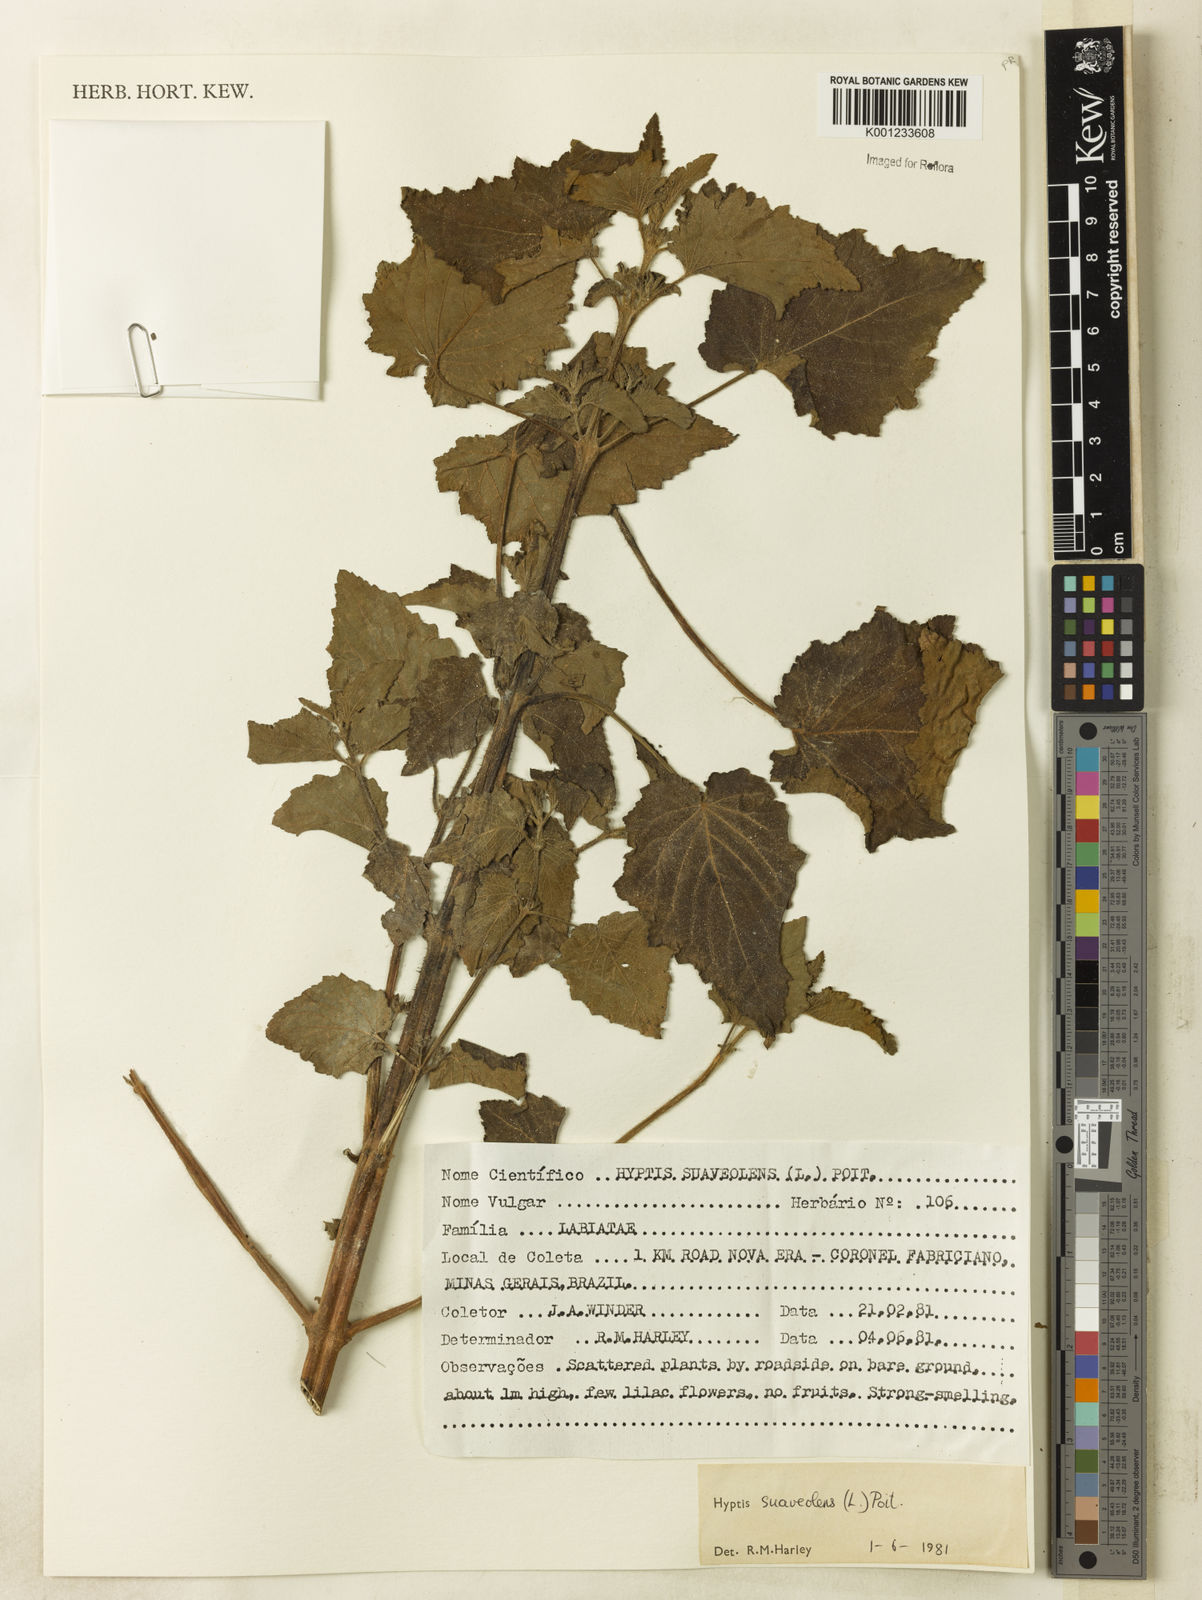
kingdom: Plantae
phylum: Tracheophyta
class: Magnoliopsida
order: Lamiales
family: Lamiaceae
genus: Mesosphaerum
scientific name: Mesosphaerum suaveolens
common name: Pignut
